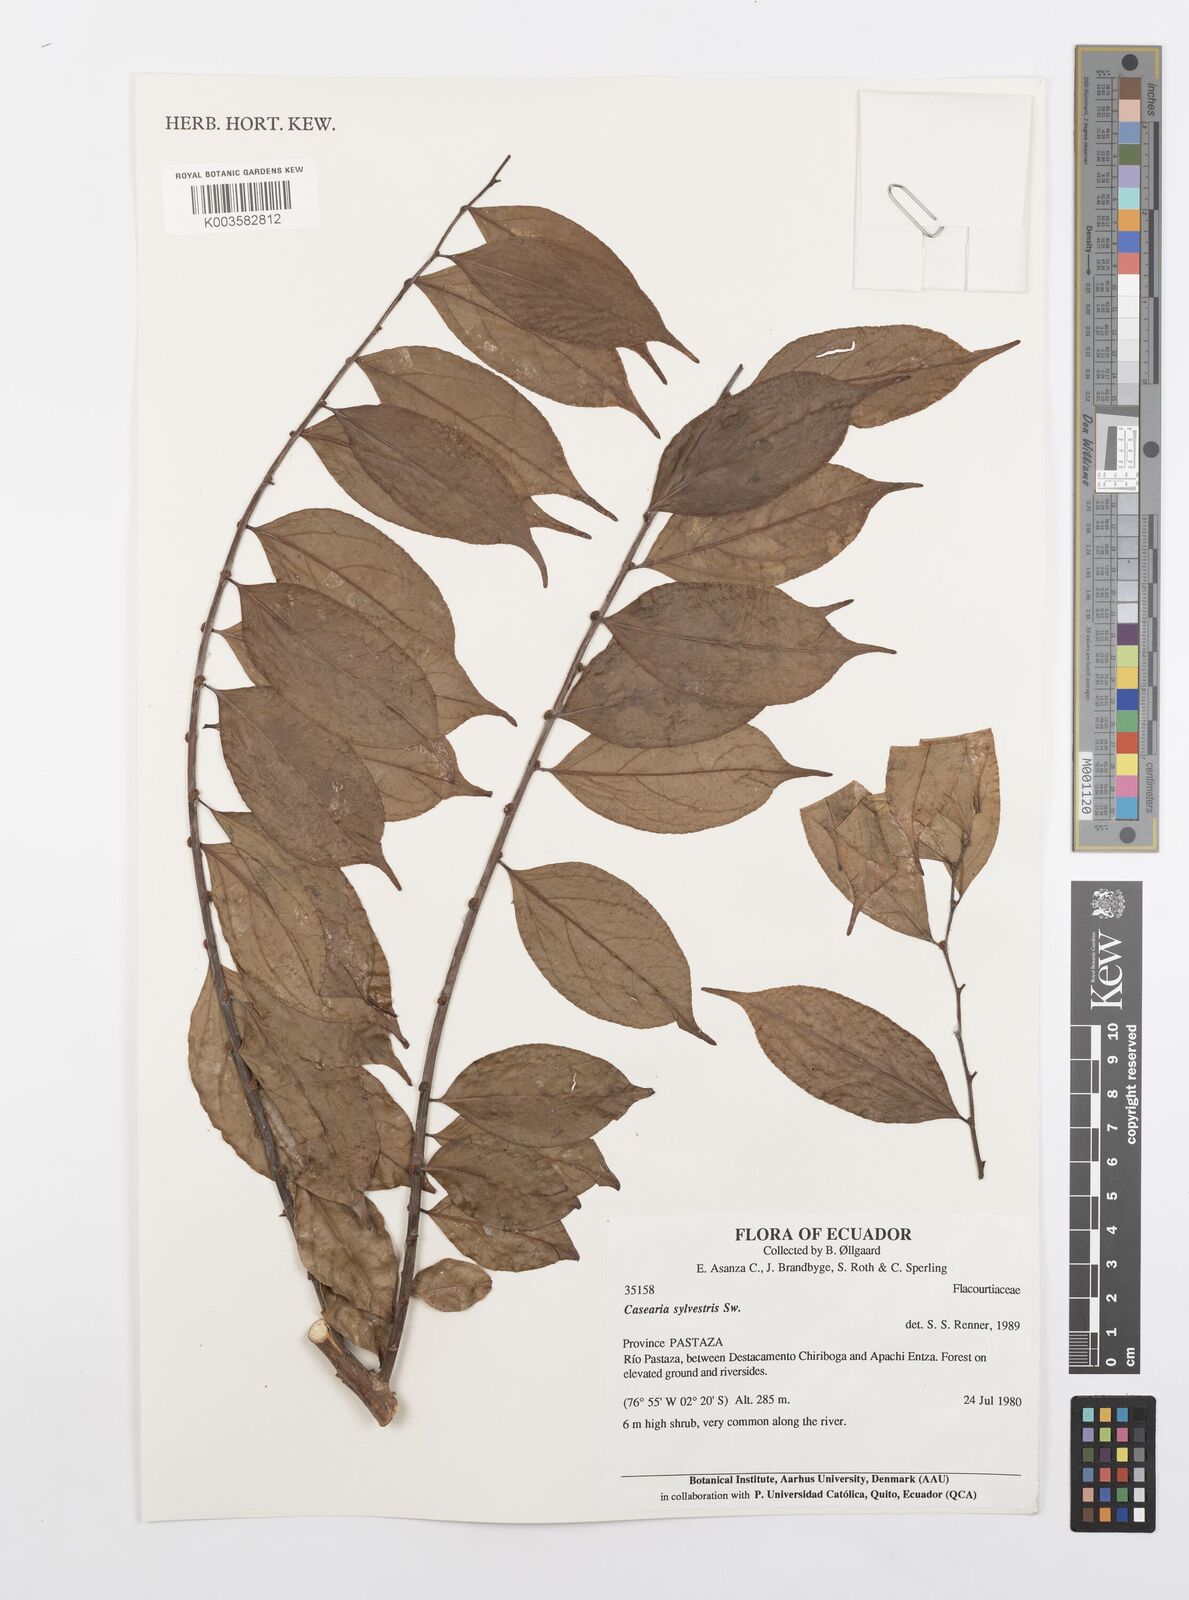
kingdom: Plantae
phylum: Tracheophyta
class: Magnoliopsida
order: Malpighiales
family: Salicaceae
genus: Casearia
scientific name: Casearia sylvestris
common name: Wild sage
